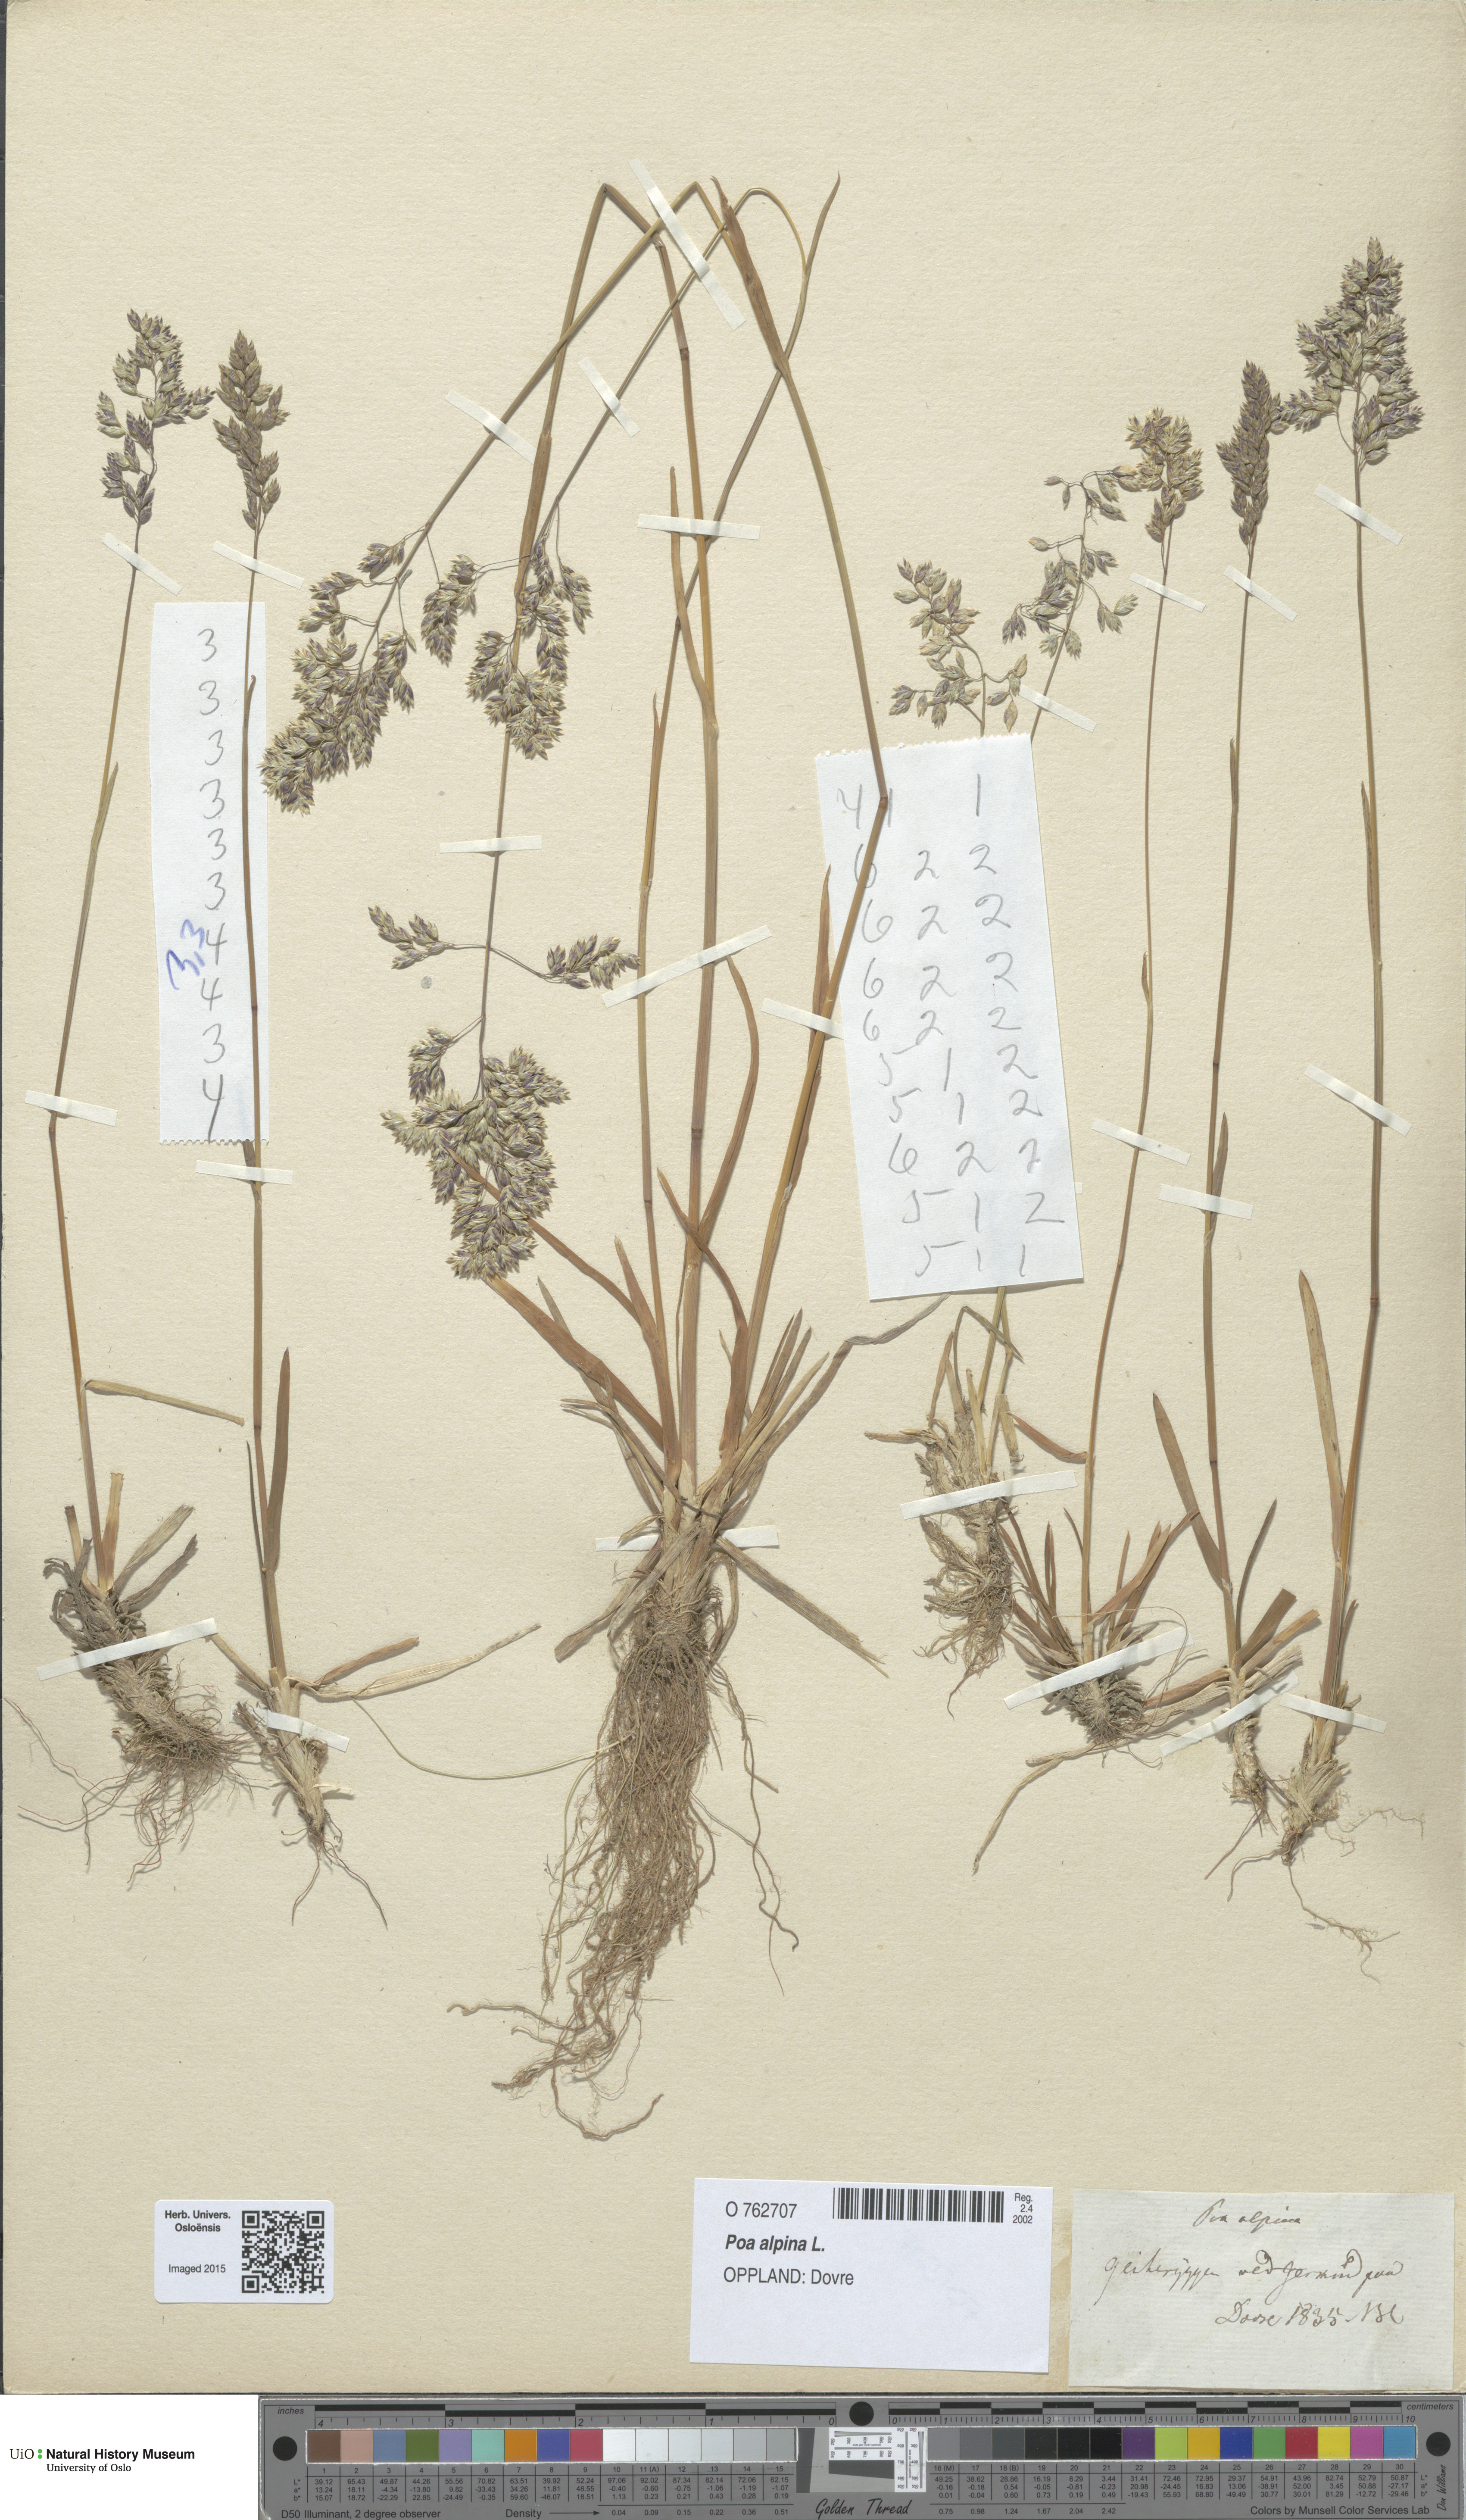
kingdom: Plantae
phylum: Tracheophyta
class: Liliopsida
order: Poales
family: Poaceae
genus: Poa
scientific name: Poa alpina
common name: Alpine bluegrass
